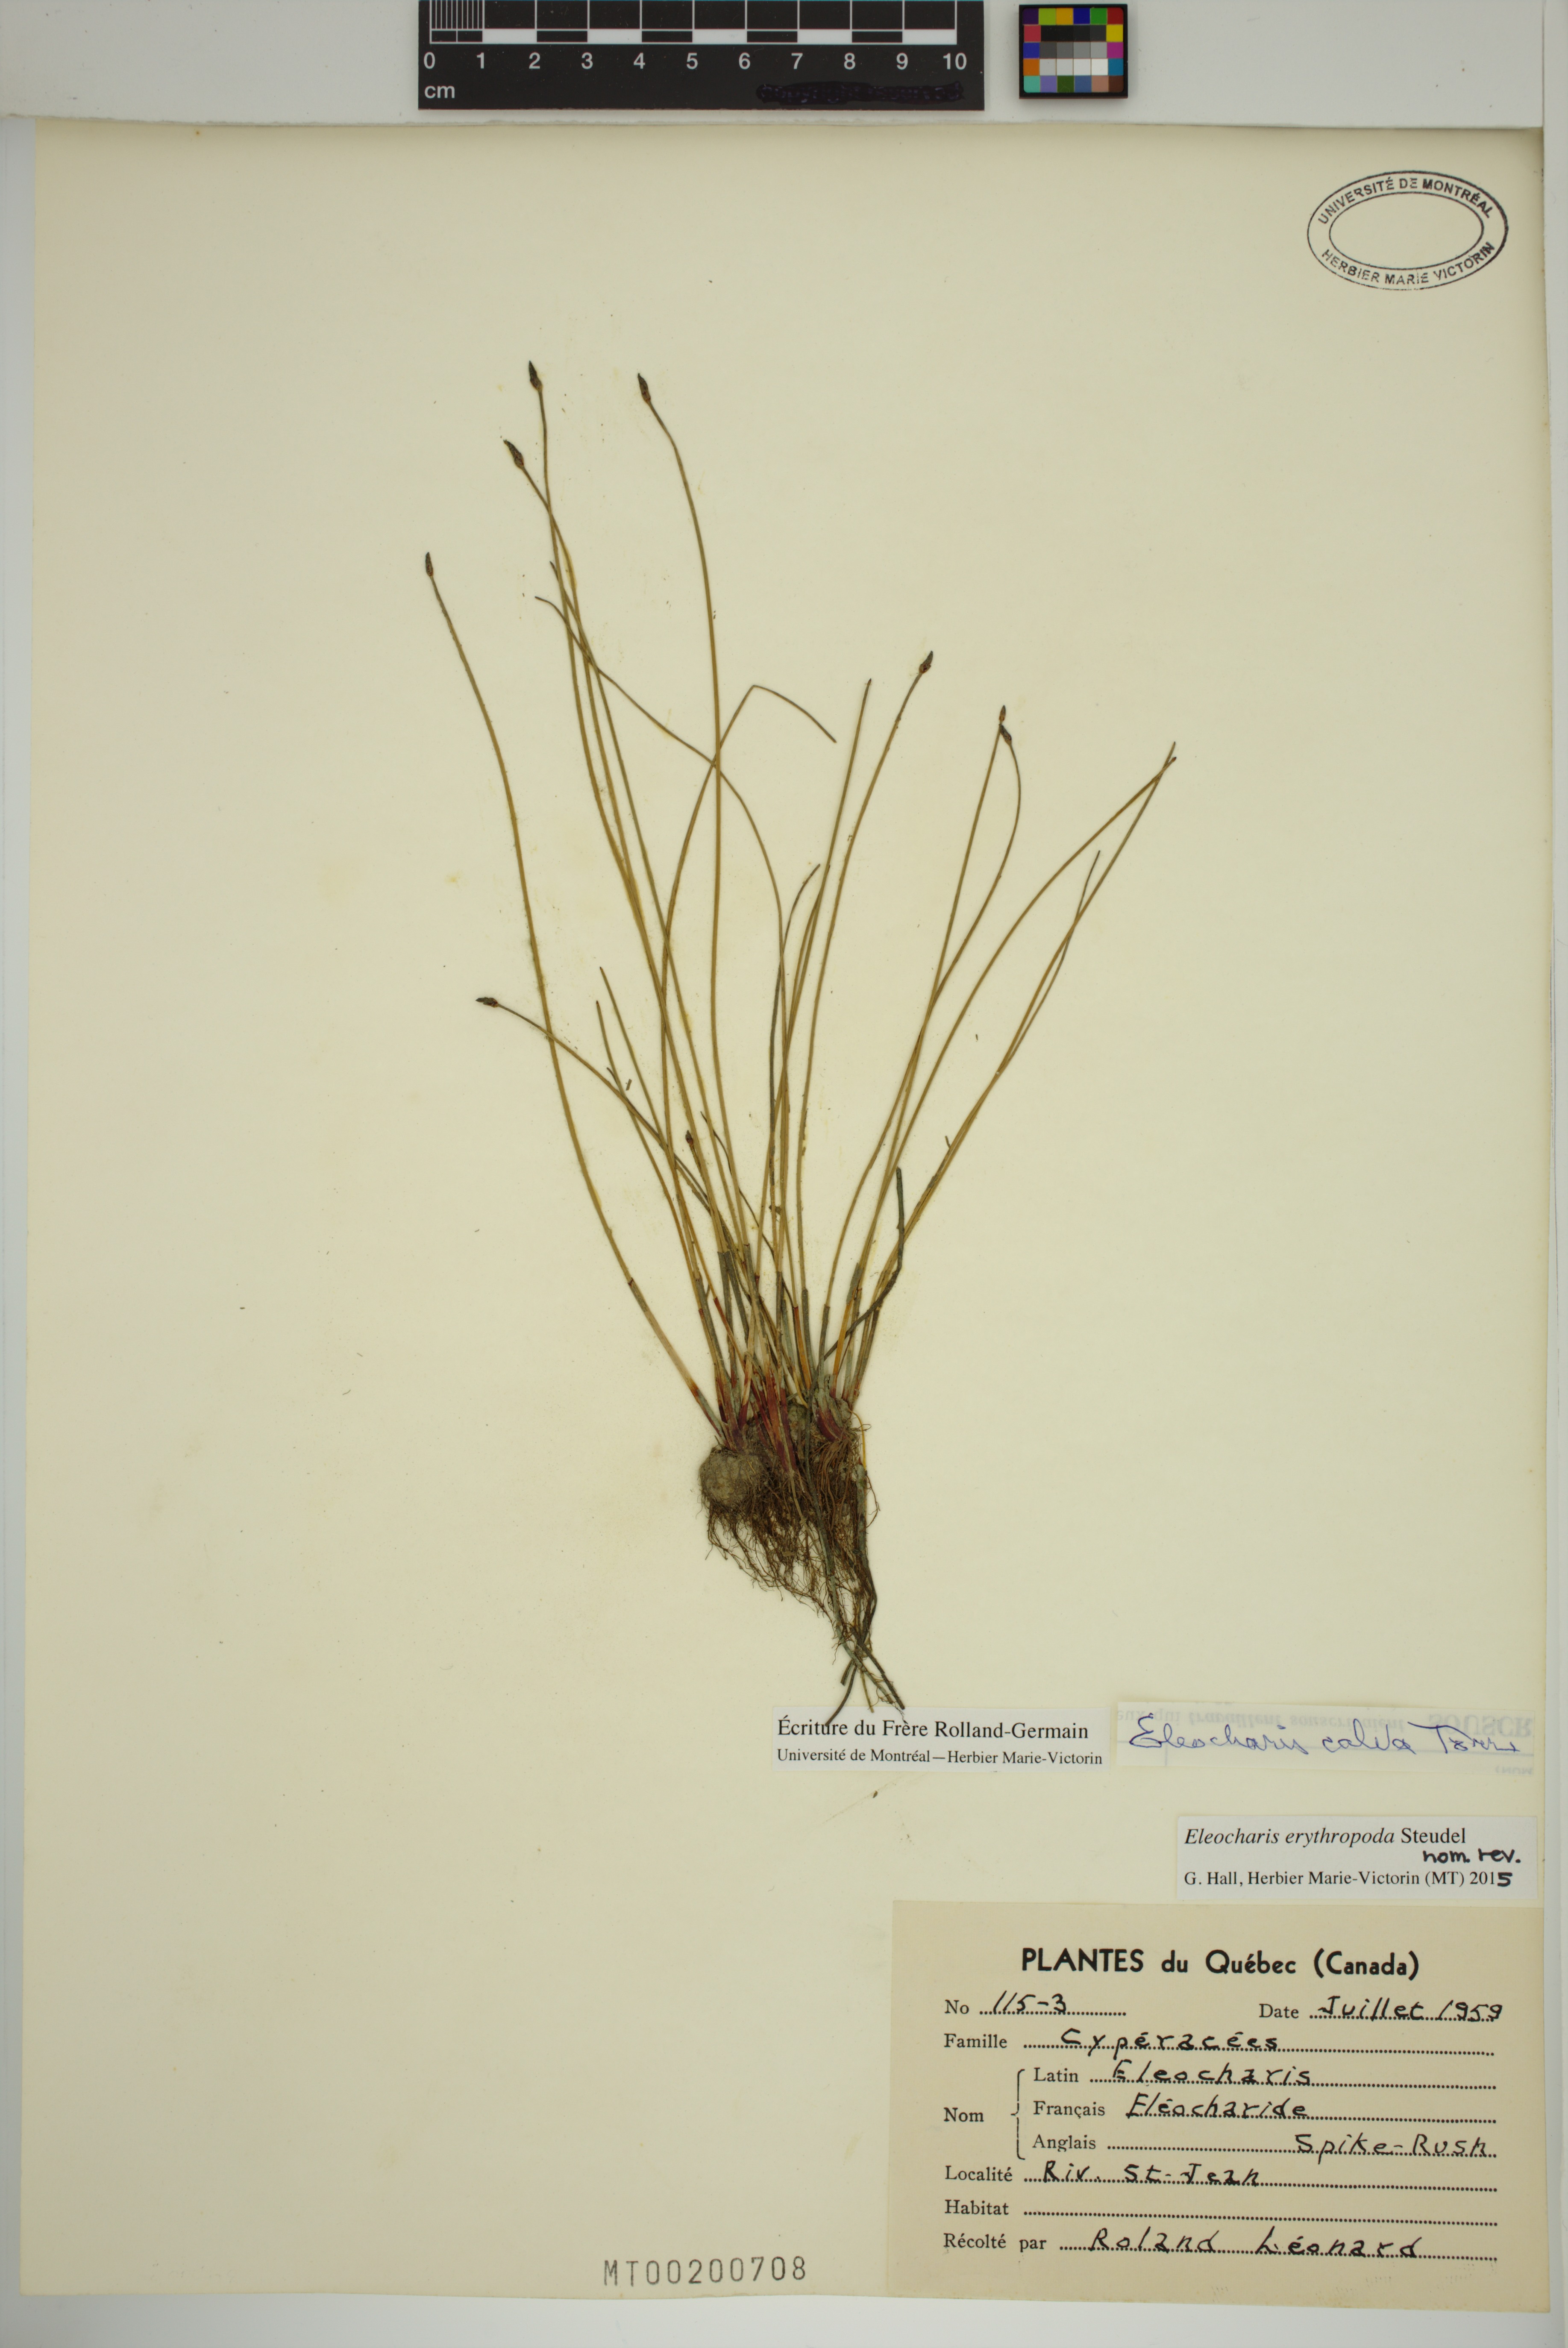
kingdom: Plantae
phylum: Tracheophyta
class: Liliopsida
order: Poales
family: Cyperaceae
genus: Eleocharis
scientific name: Eleocharis erythropoda
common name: Bald spikerush
